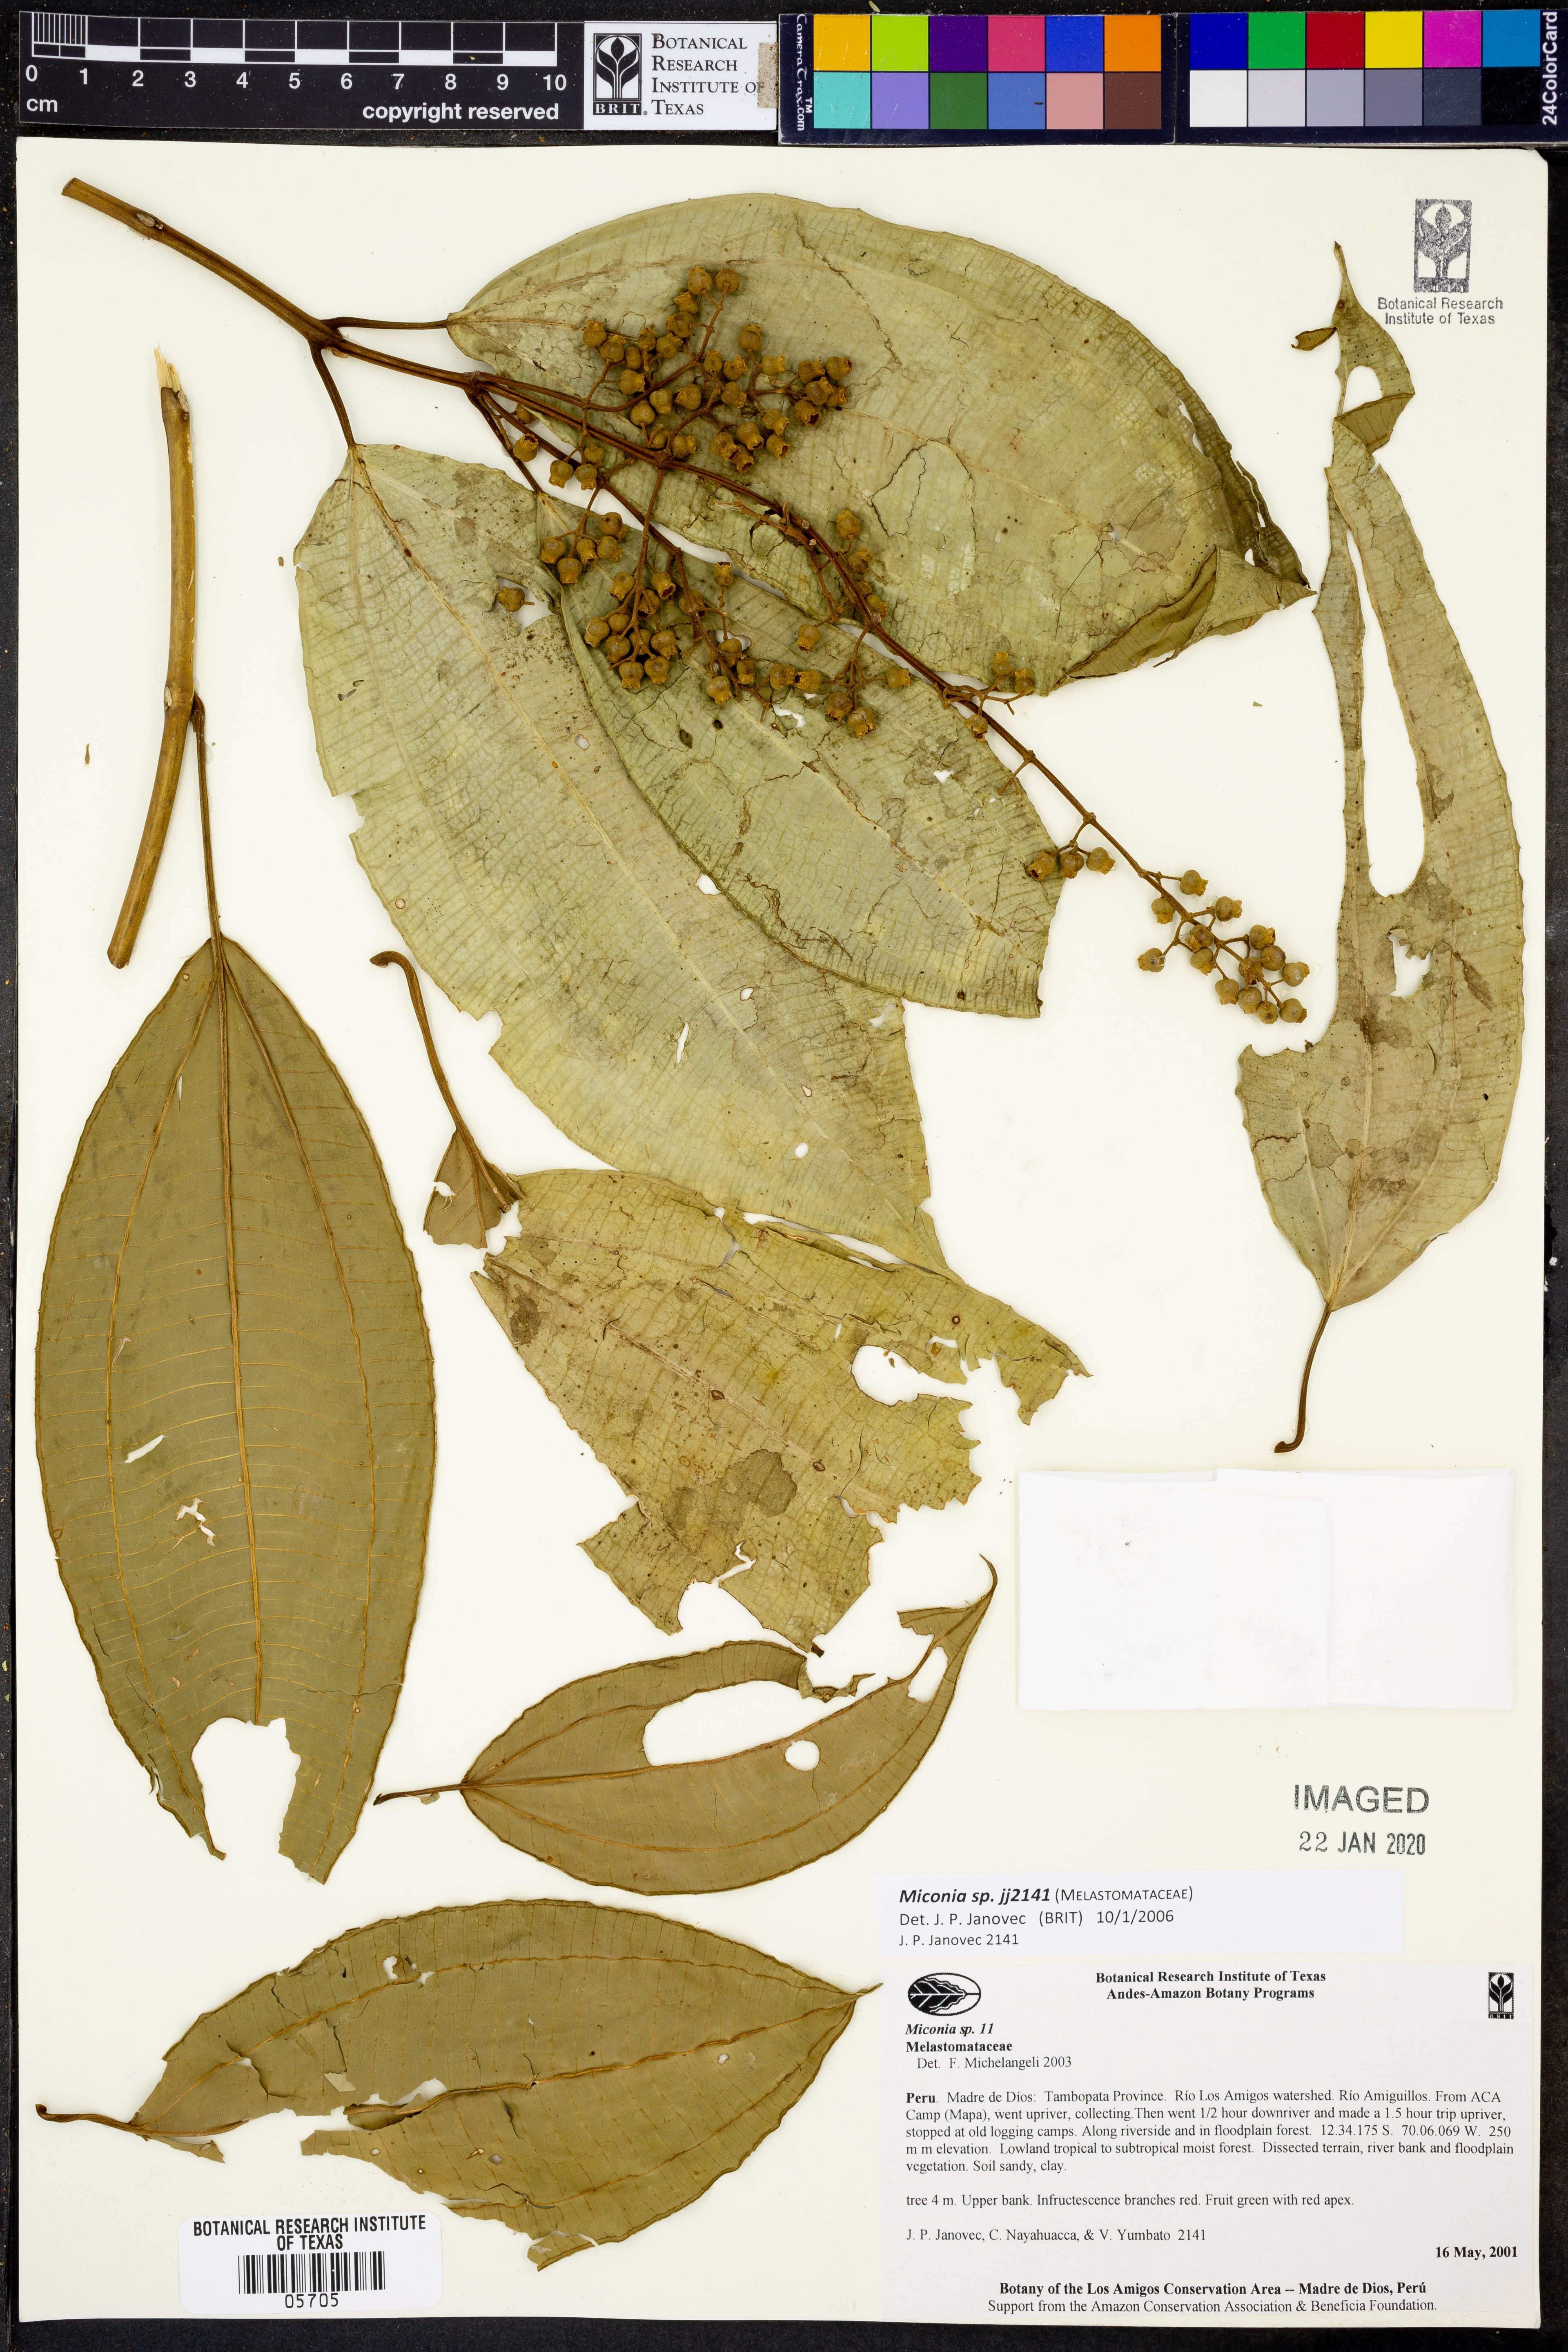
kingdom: Plantae
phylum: Tracheophyta
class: Magnoliopsida
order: Myrtales
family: Melastomataceae
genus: Miconia
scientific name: Miconia
